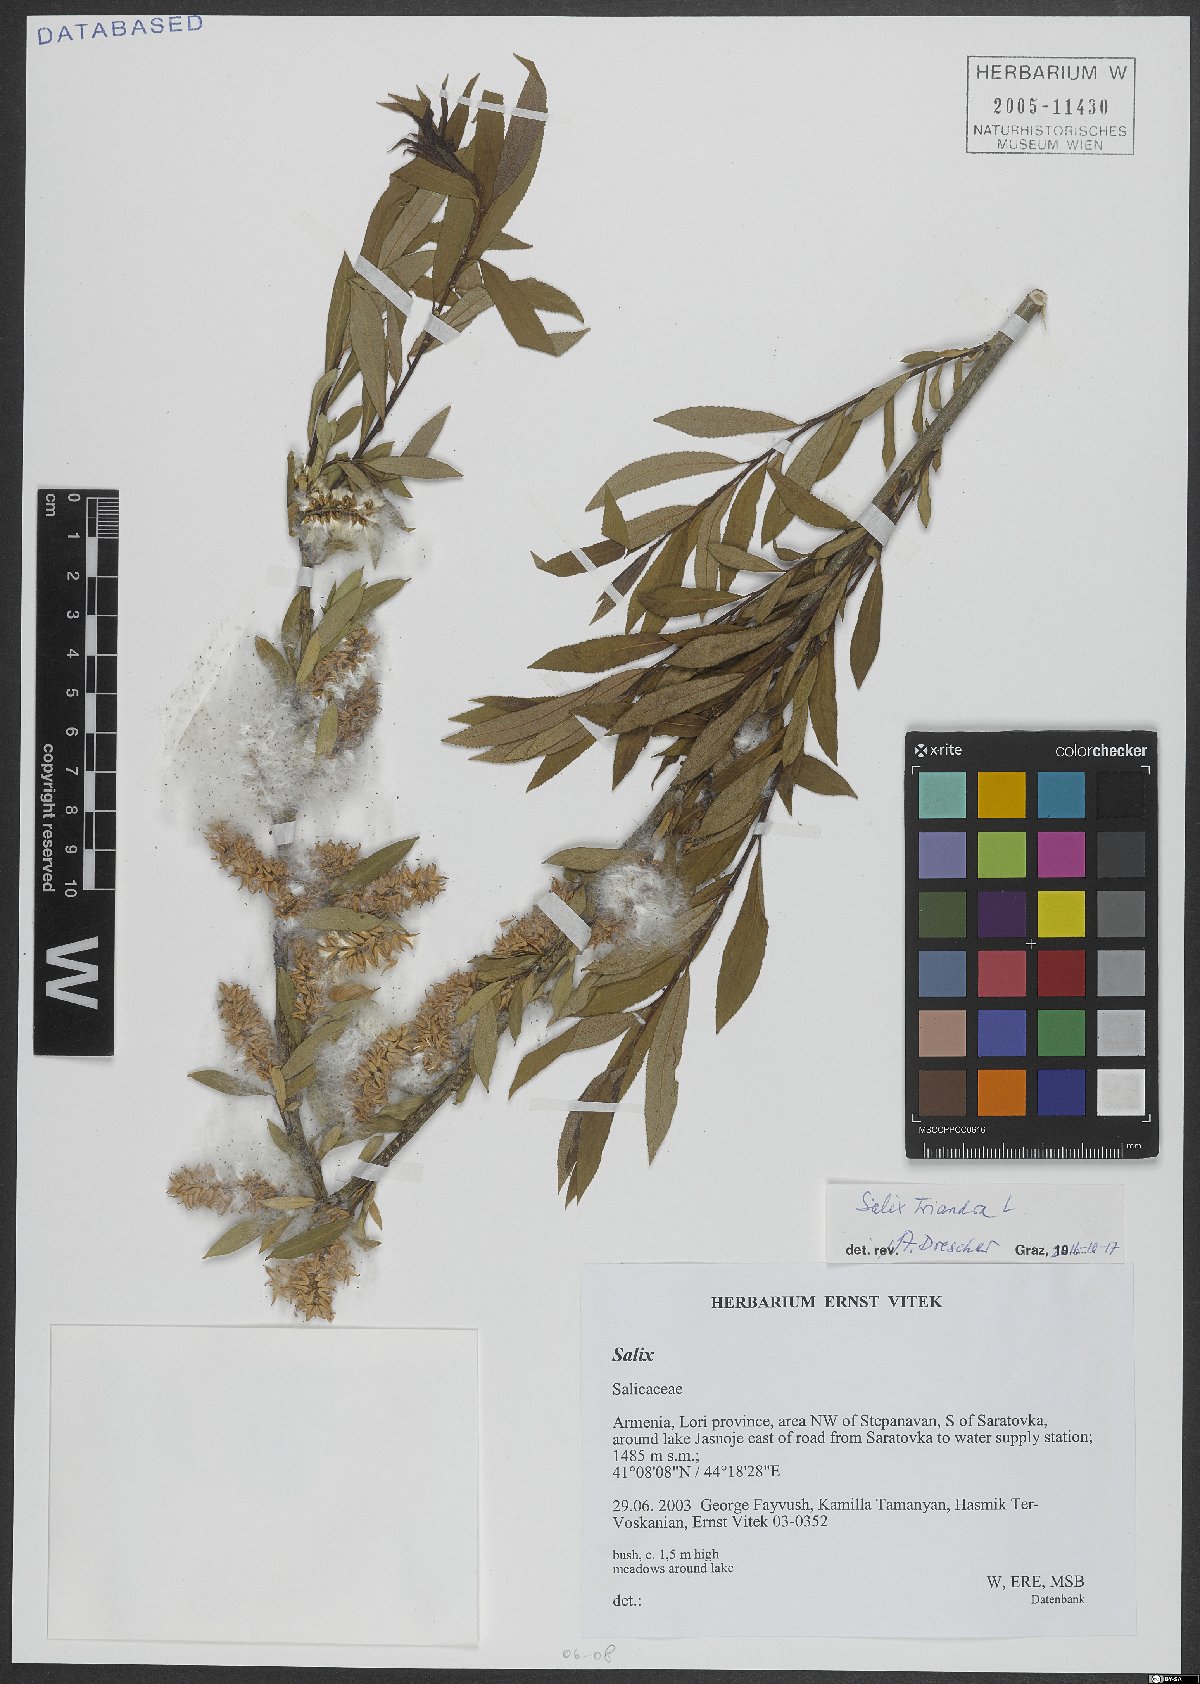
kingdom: Plantae
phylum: Tracheophyta
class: Magnoliopsida
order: Malpighiales
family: Salicaceae
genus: Salix
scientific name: Salix triandra
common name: Almond willow
